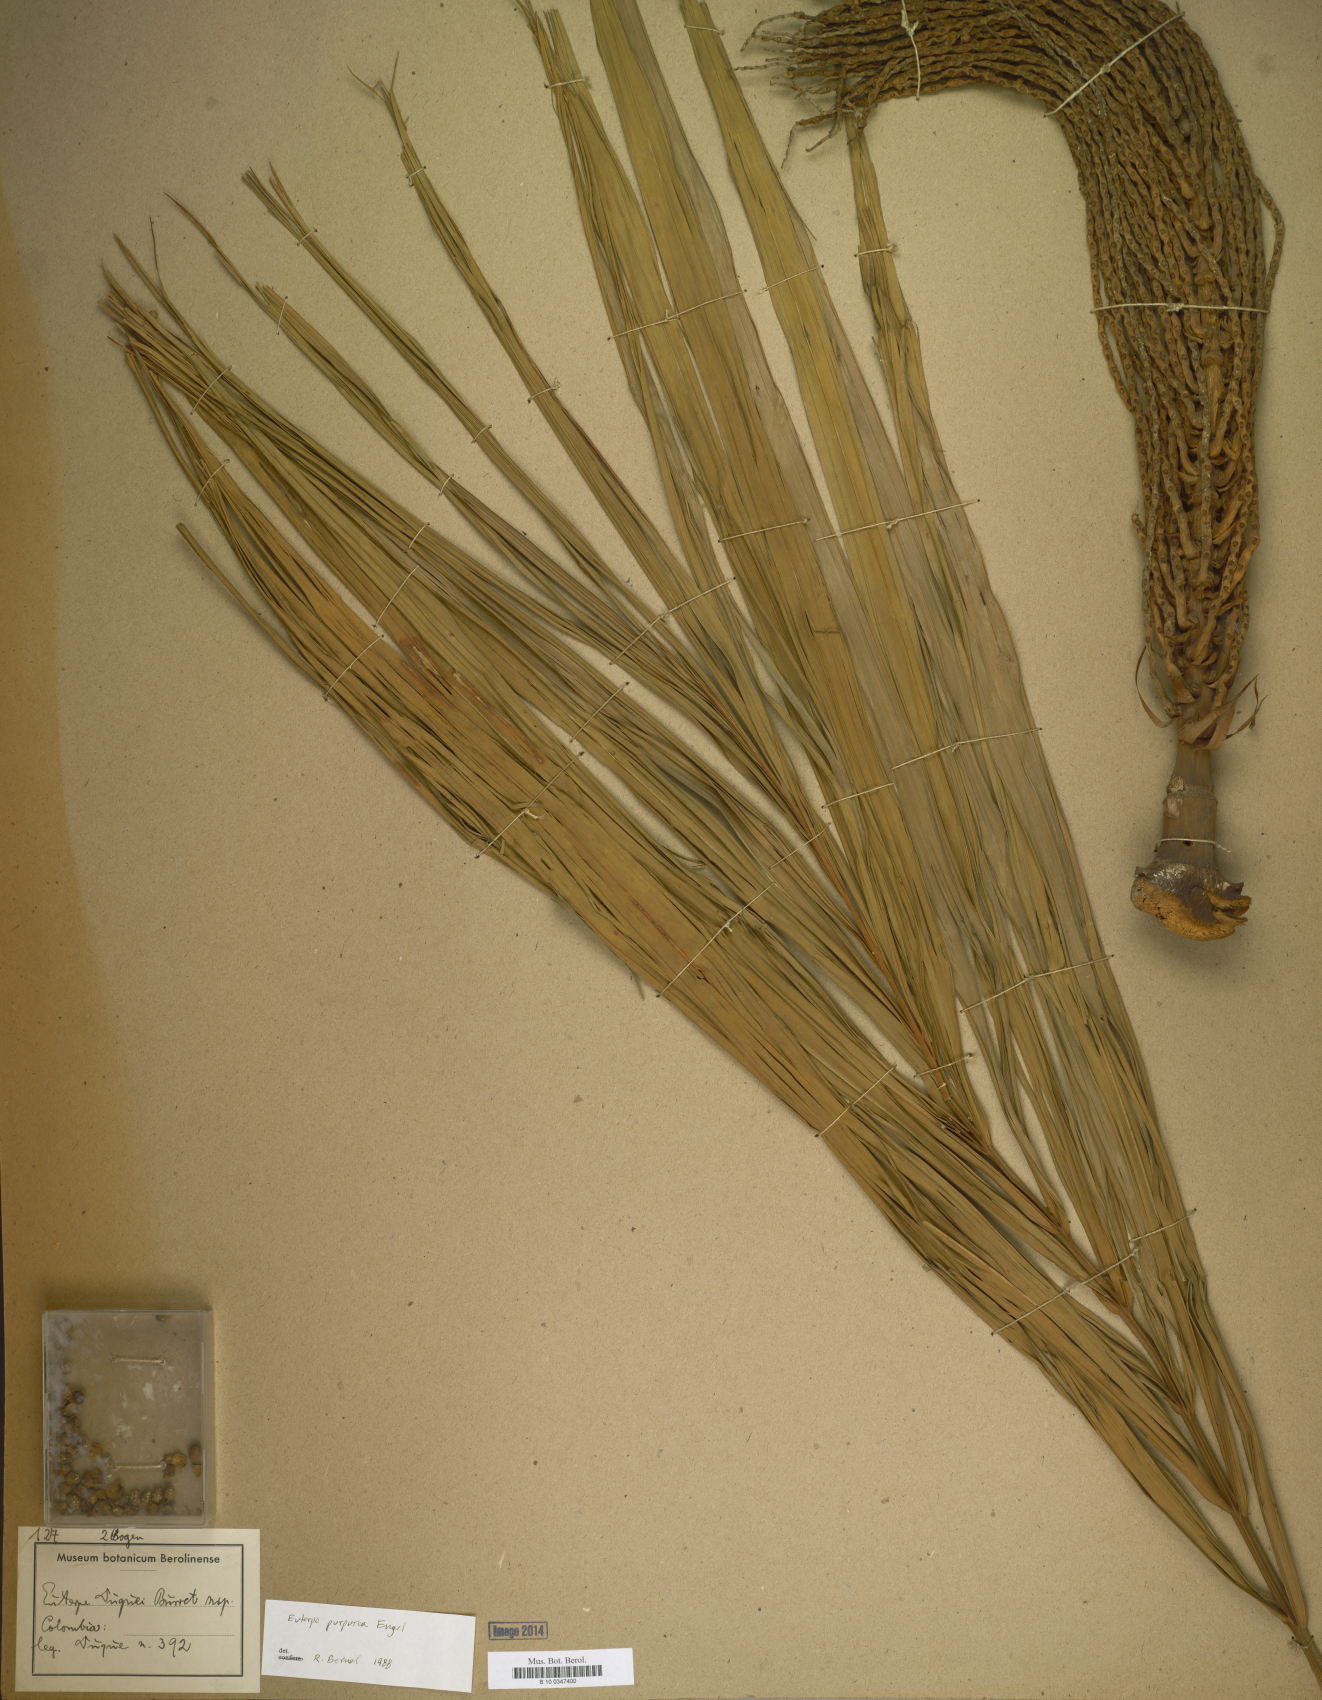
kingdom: Plantae
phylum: Tracheophyta
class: Liliopsida
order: Arecales
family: Arecaceae
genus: Prestoea
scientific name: Prestoea acuminata
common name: Sierran palm
